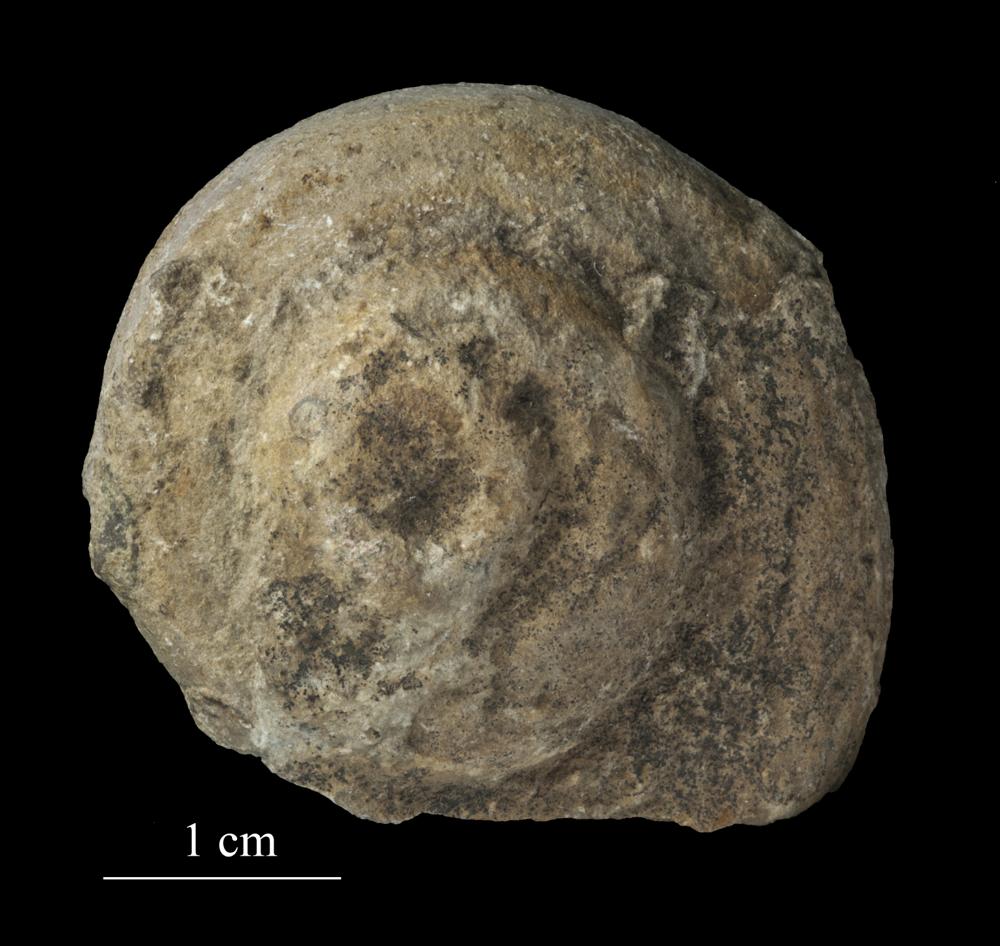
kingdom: Animalia
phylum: Mollusca
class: Gastropoda
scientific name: Gastropoda
